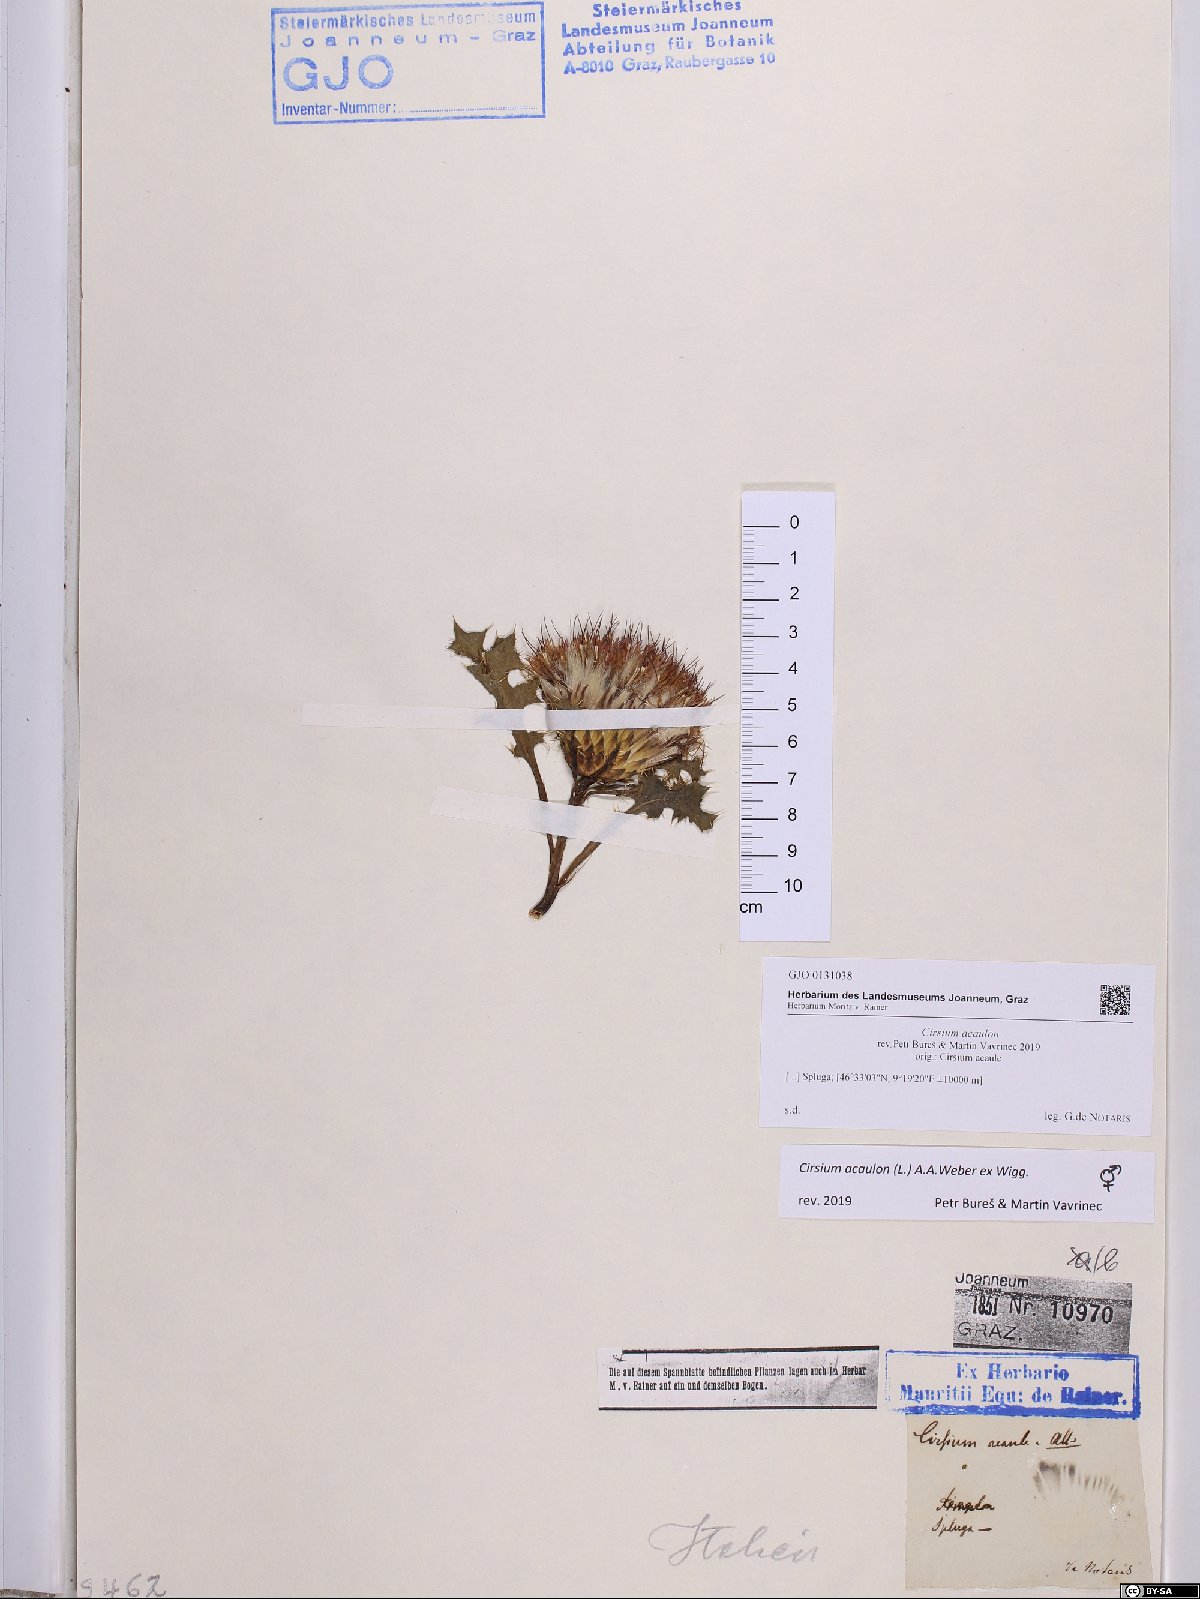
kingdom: Plantae
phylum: Tracheophyta
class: Magnoliopsida
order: Asterales
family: Asteraceae
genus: Cirsium
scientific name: Cirsium acaulon
